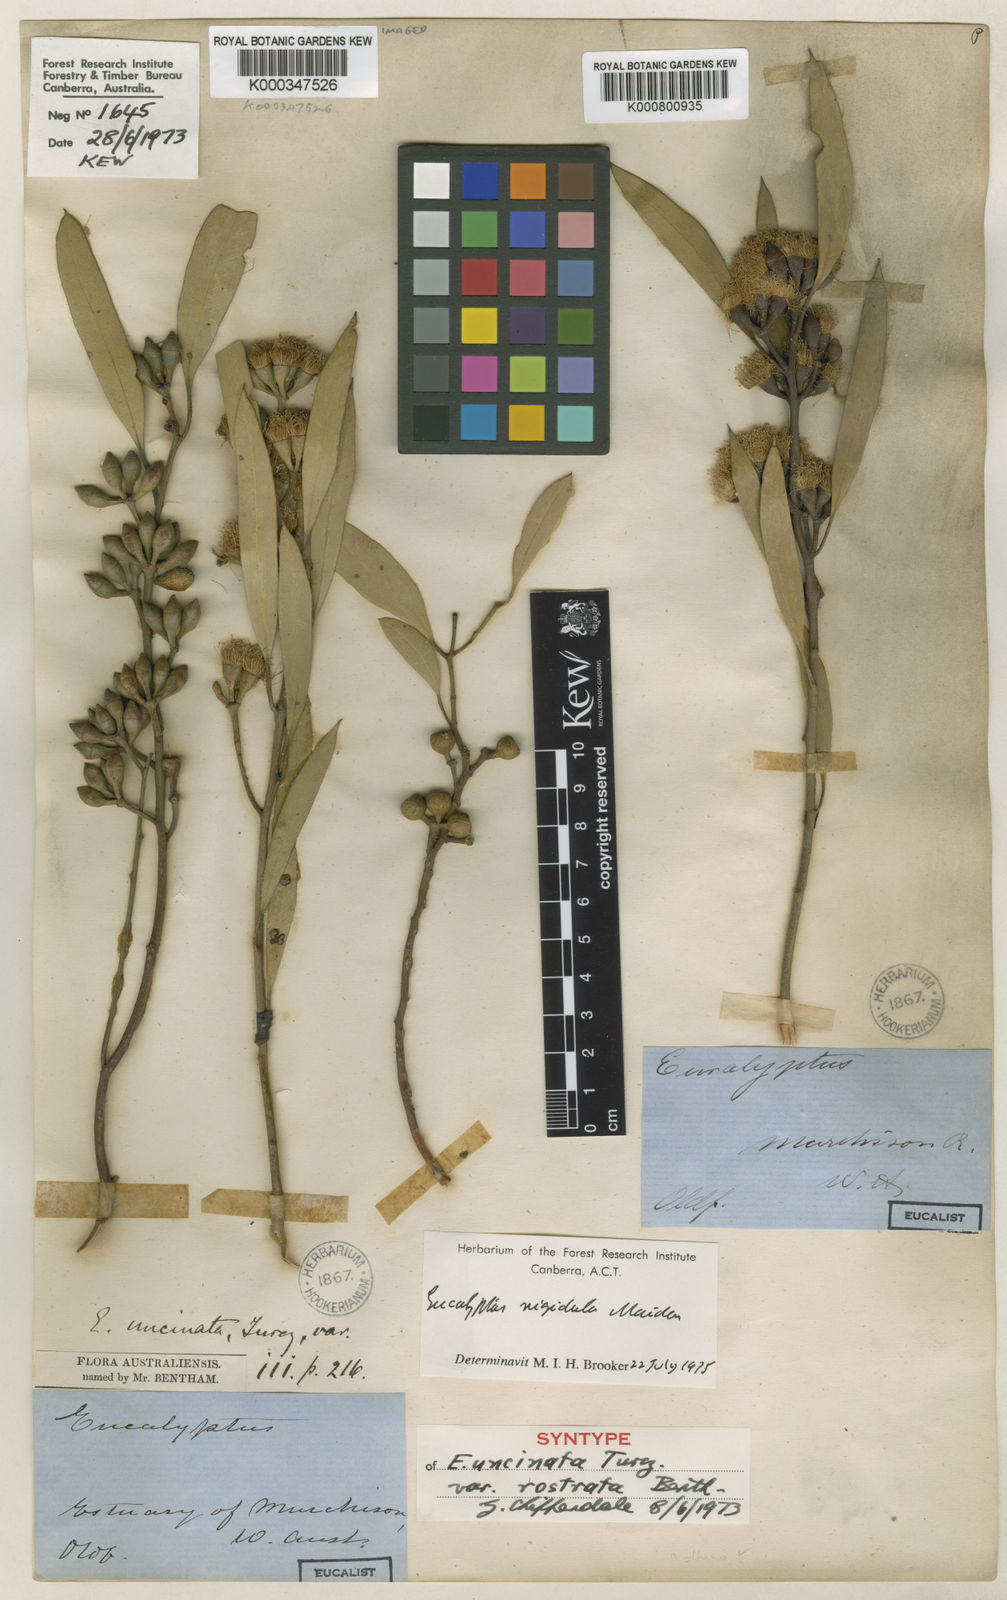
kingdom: Plantae
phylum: Tracheophyta
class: Magnoliopsida
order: Myrtales
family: Myrtaceae
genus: Eucalyptus
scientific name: Eucalyptus
